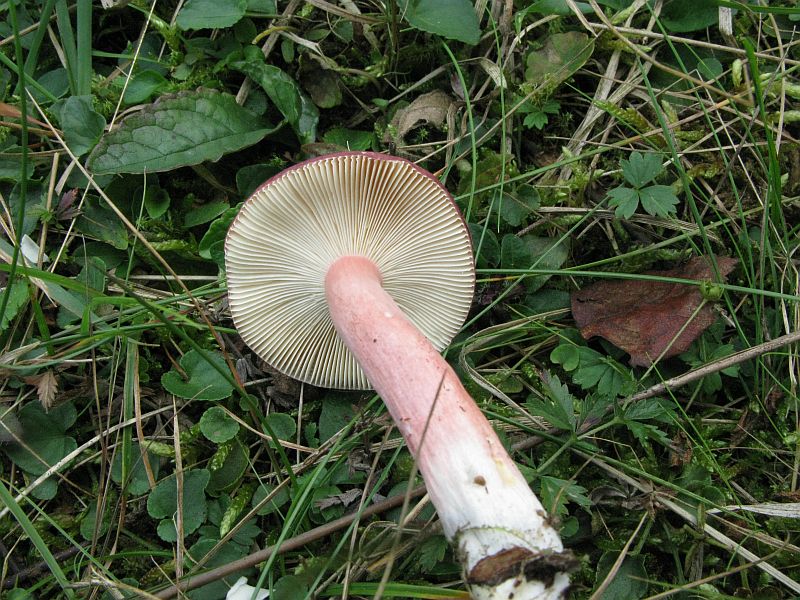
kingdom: Fungi
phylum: Basidiomycota
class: Agaricomycetes
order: Russulales
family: Russulaceae
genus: Russula
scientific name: Russula queletii
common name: Quélets skørhat
